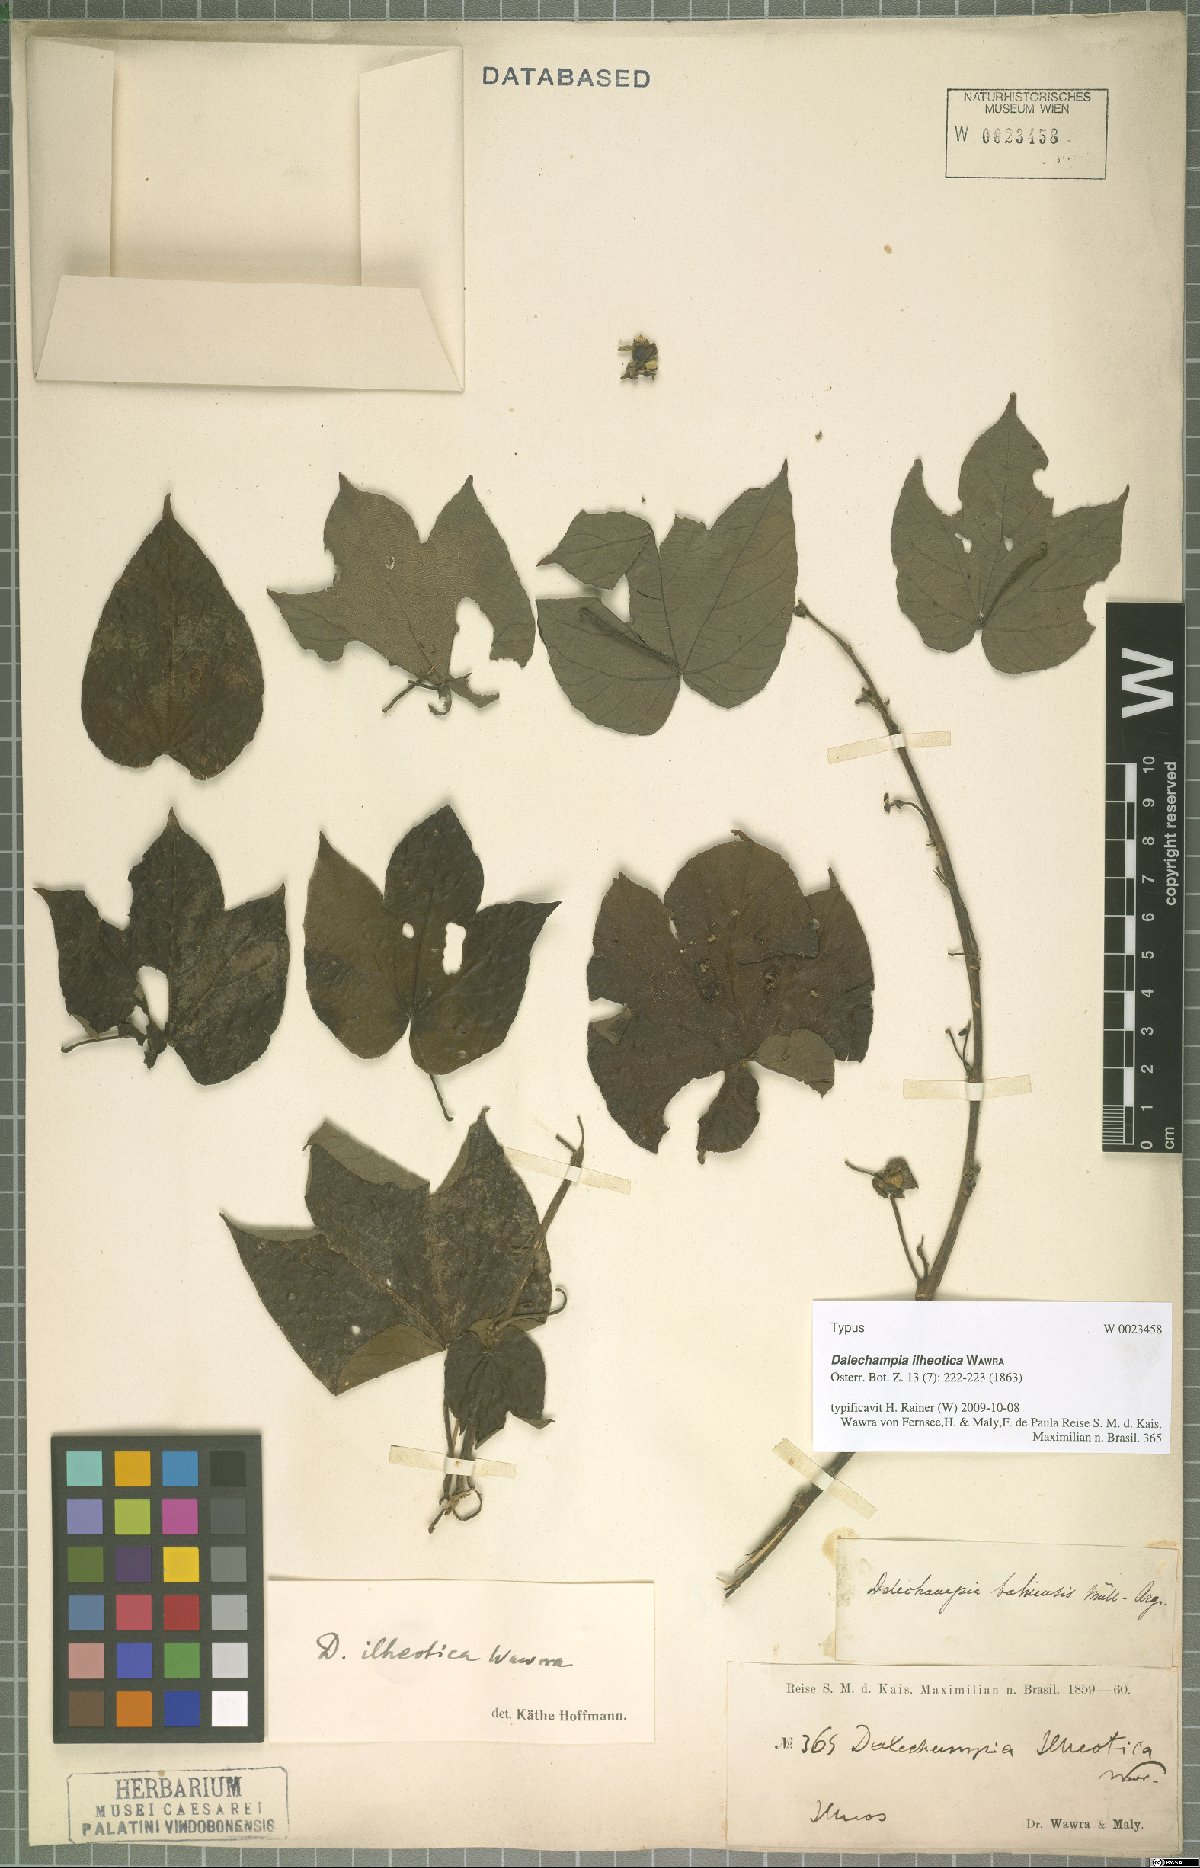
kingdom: Plantae
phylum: Tracheophyta
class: Magnoliopsida
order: Malpighiales
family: Euphorbiaceae
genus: Dalechampia
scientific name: Dalechampia ilheotica
